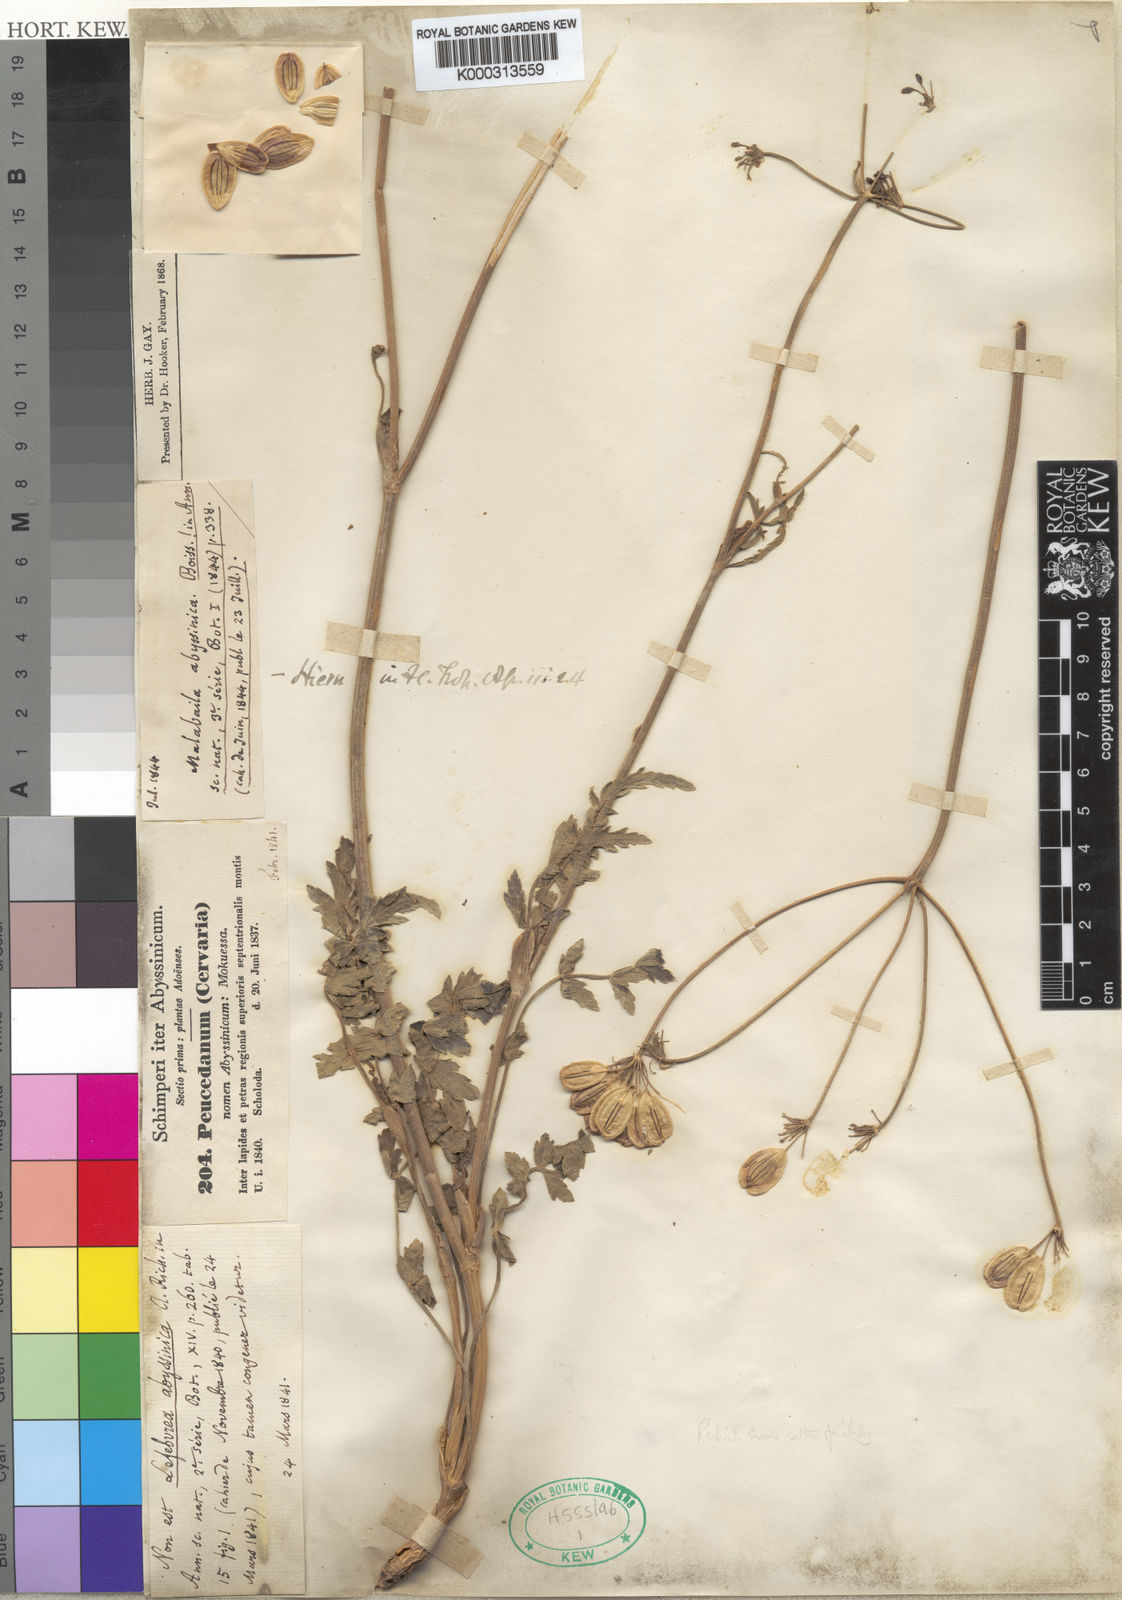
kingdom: Plantae
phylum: Tracheophyta
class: Magnoliopsida
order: Apiales
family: Apiaceae
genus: Heracleum
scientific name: Heracleum abyssinicum
